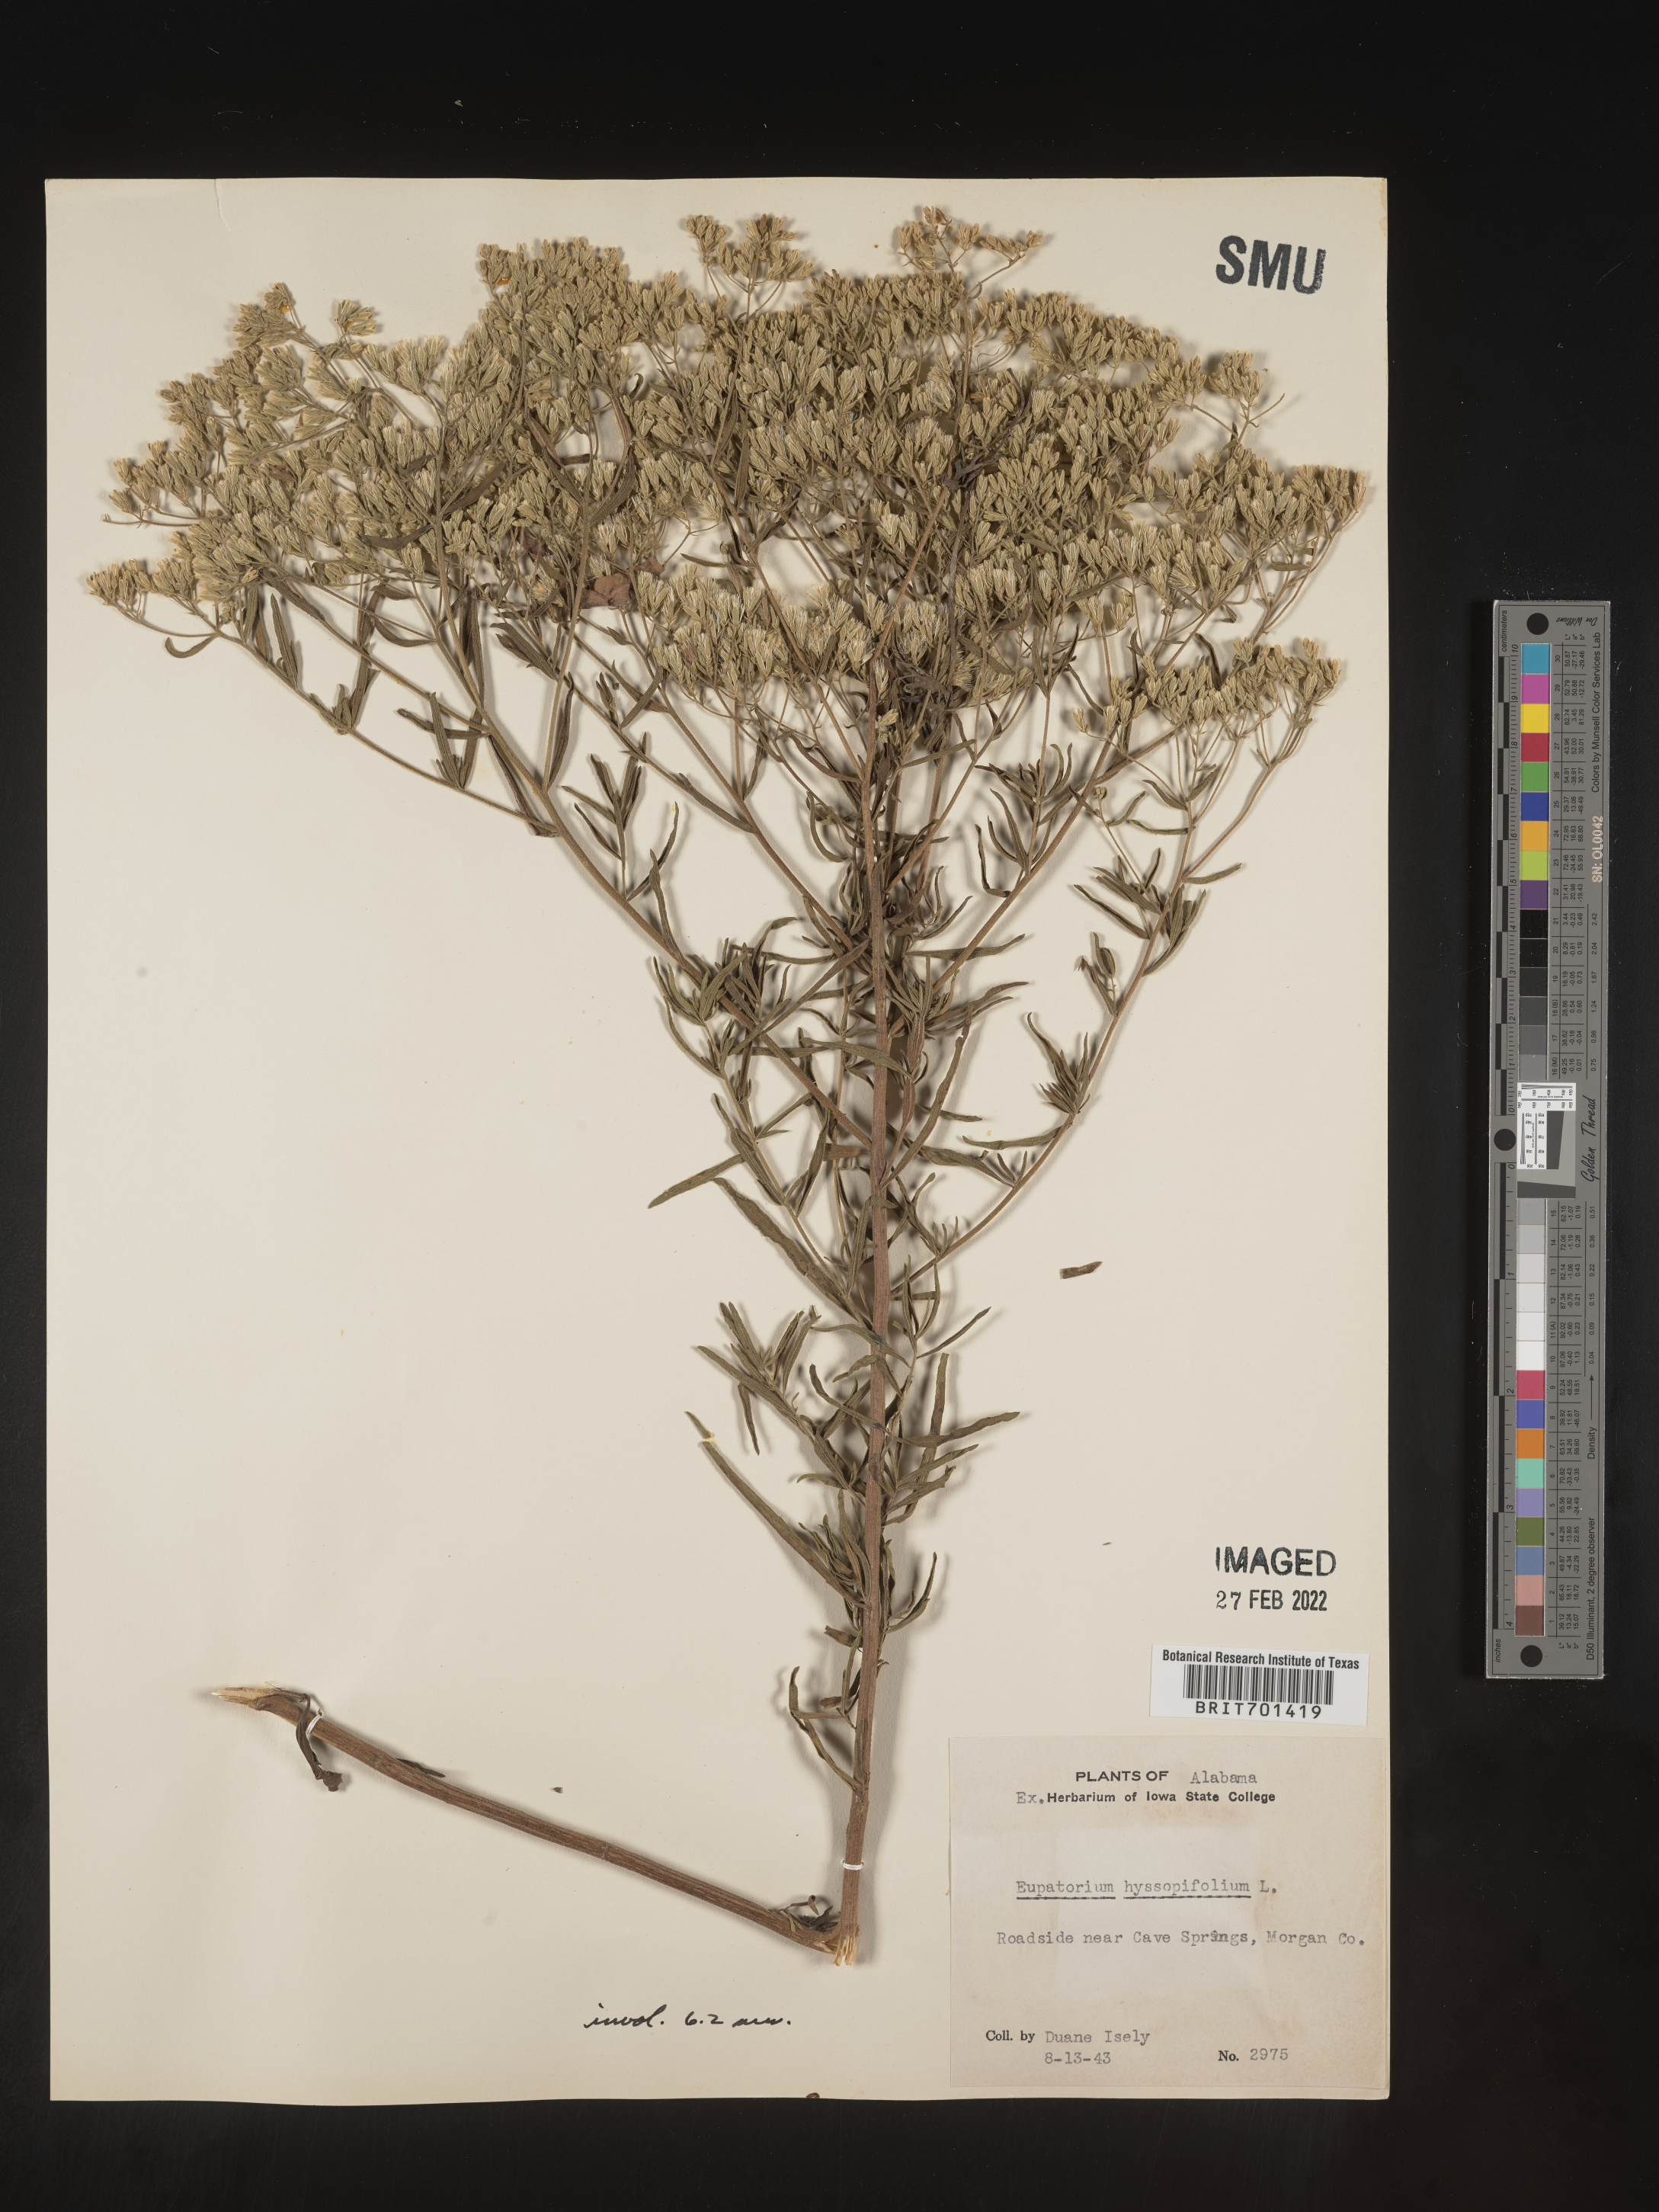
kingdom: Plantae
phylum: Tracheophyta
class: Magnoliopsida
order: Asterales
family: Asteraceae
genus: Eupatorium
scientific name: Eupatorium hyssopifolium
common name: Hyssop-leaf thoroughwort
